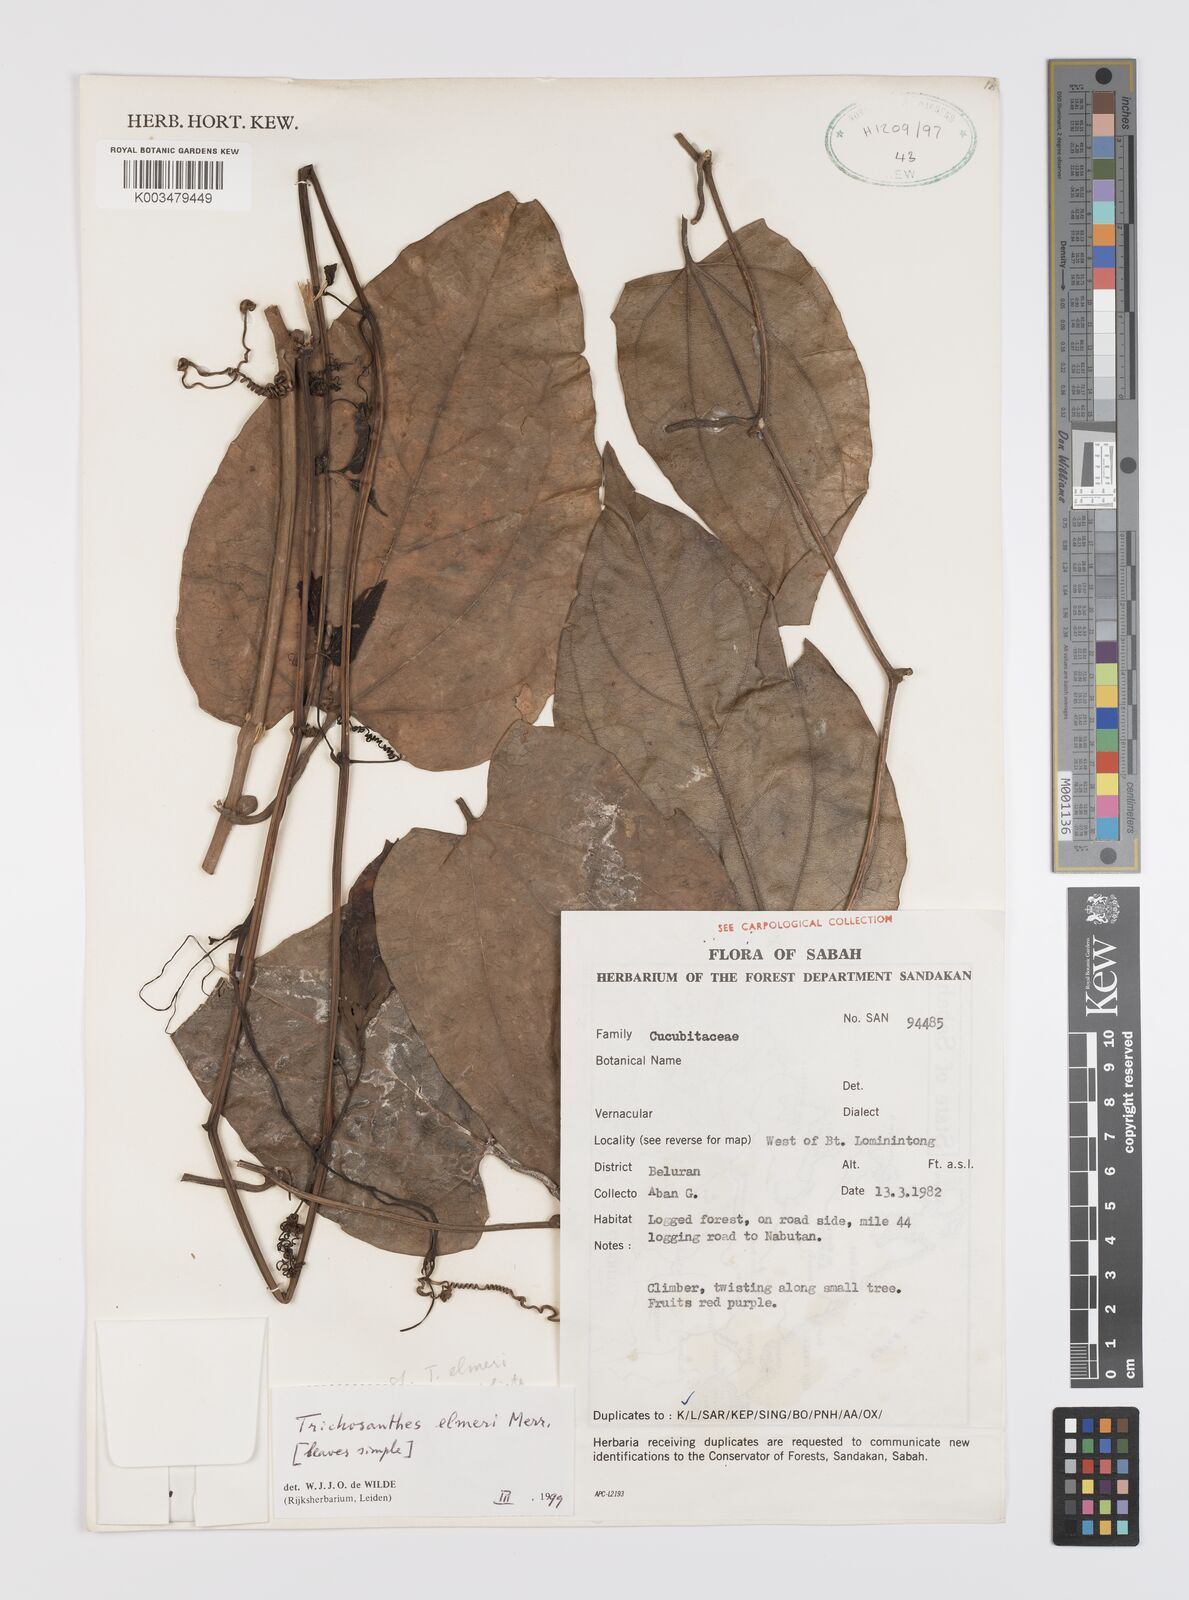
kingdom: Plantae
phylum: Tracheophyta
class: Magnoliopsida
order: Cucurbitales
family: Cucurbitaceae
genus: Trichosanthes
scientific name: Trichosanthes elmeri
